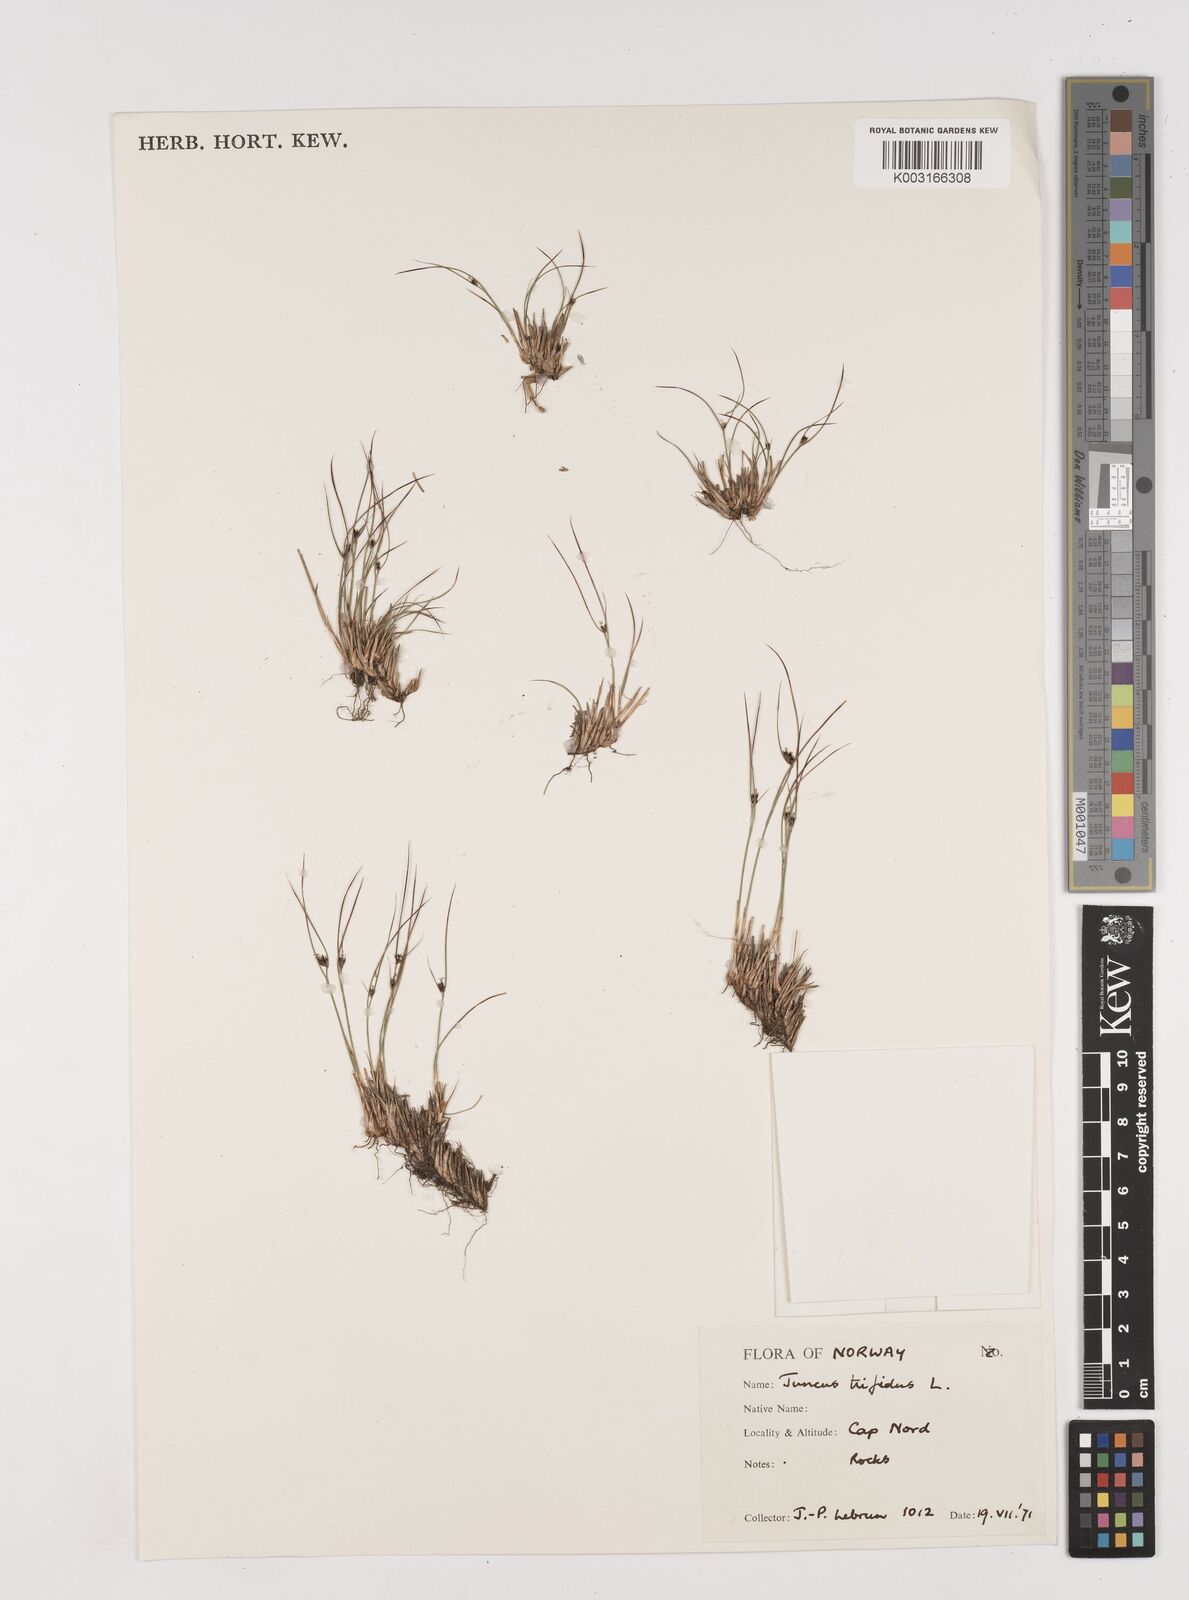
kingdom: Plantae
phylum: Tracheophyta
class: Liliopsida
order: Poales
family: Juncaceae
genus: Oreojuncus
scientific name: Oreojuncus trifidus
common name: Highland rush
